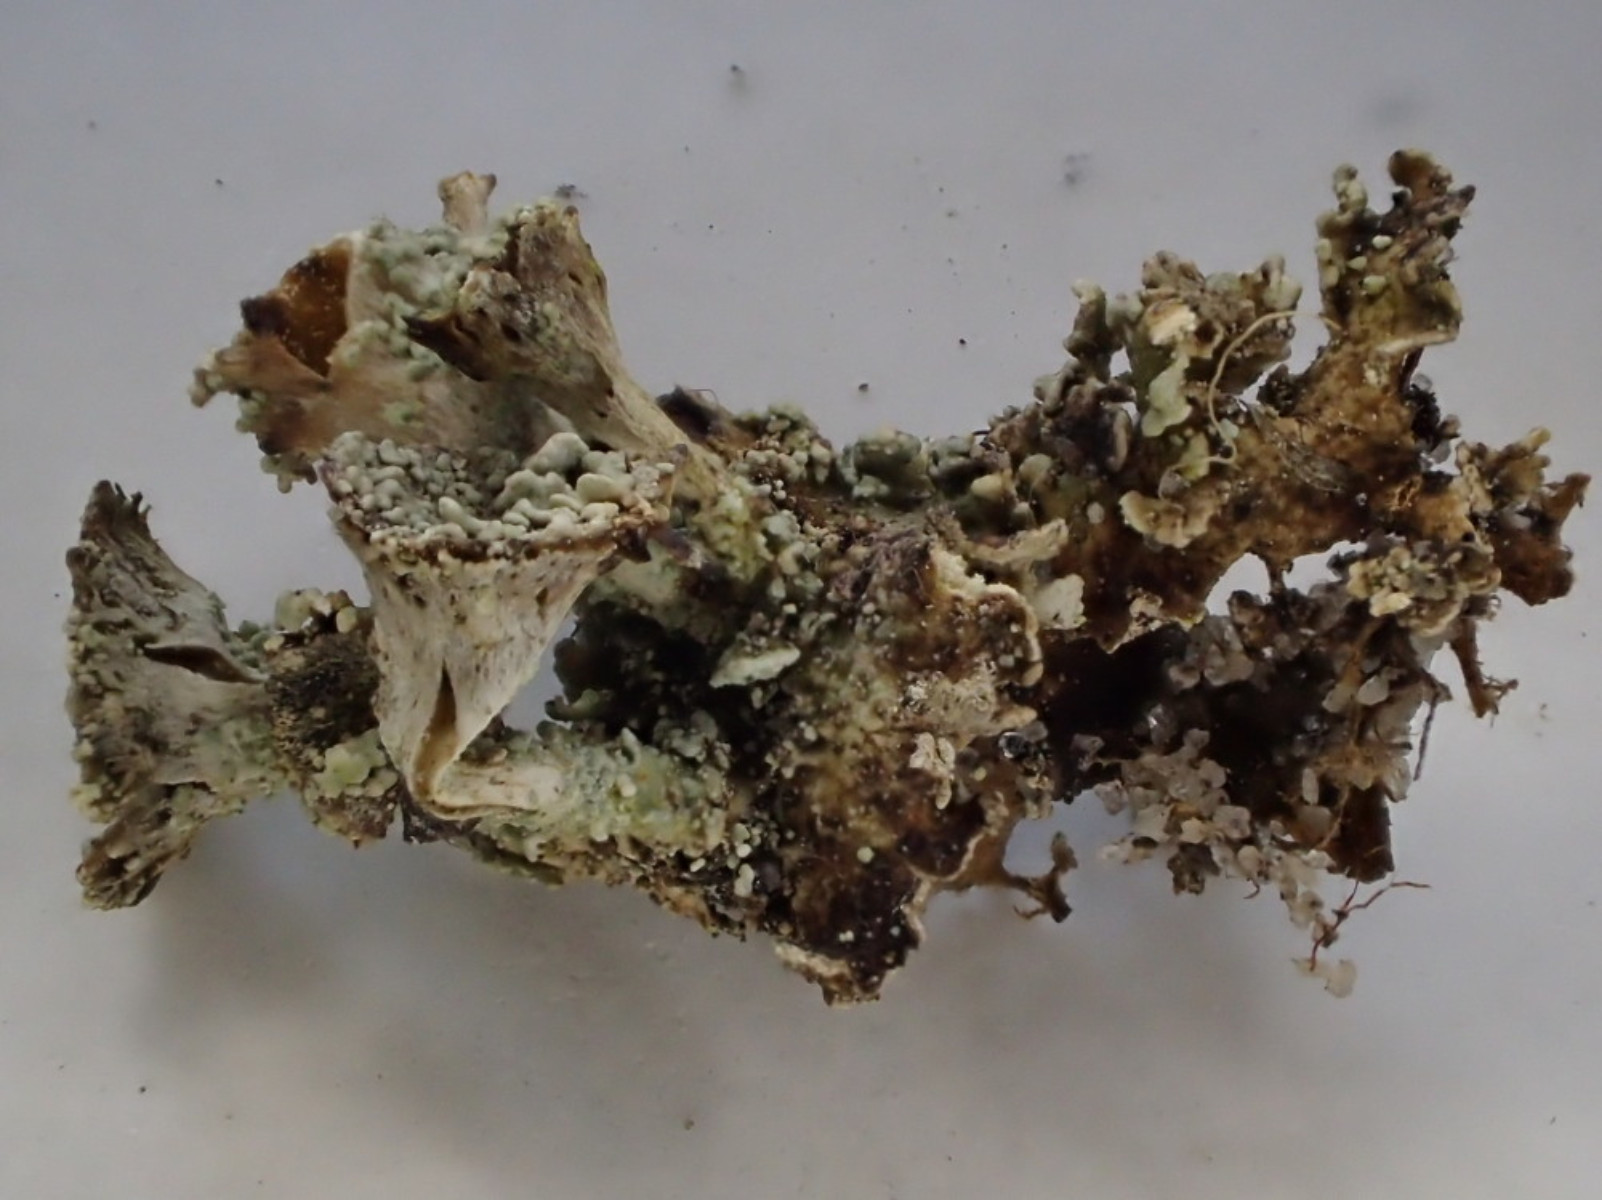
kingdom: Fungi
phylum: Ascomycota
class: Lecanoromycetes
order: Lecanorales
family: Cladoniaceae
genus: Cladonia
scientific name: Cladonia pyxidata
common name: tragt-bægerlav
